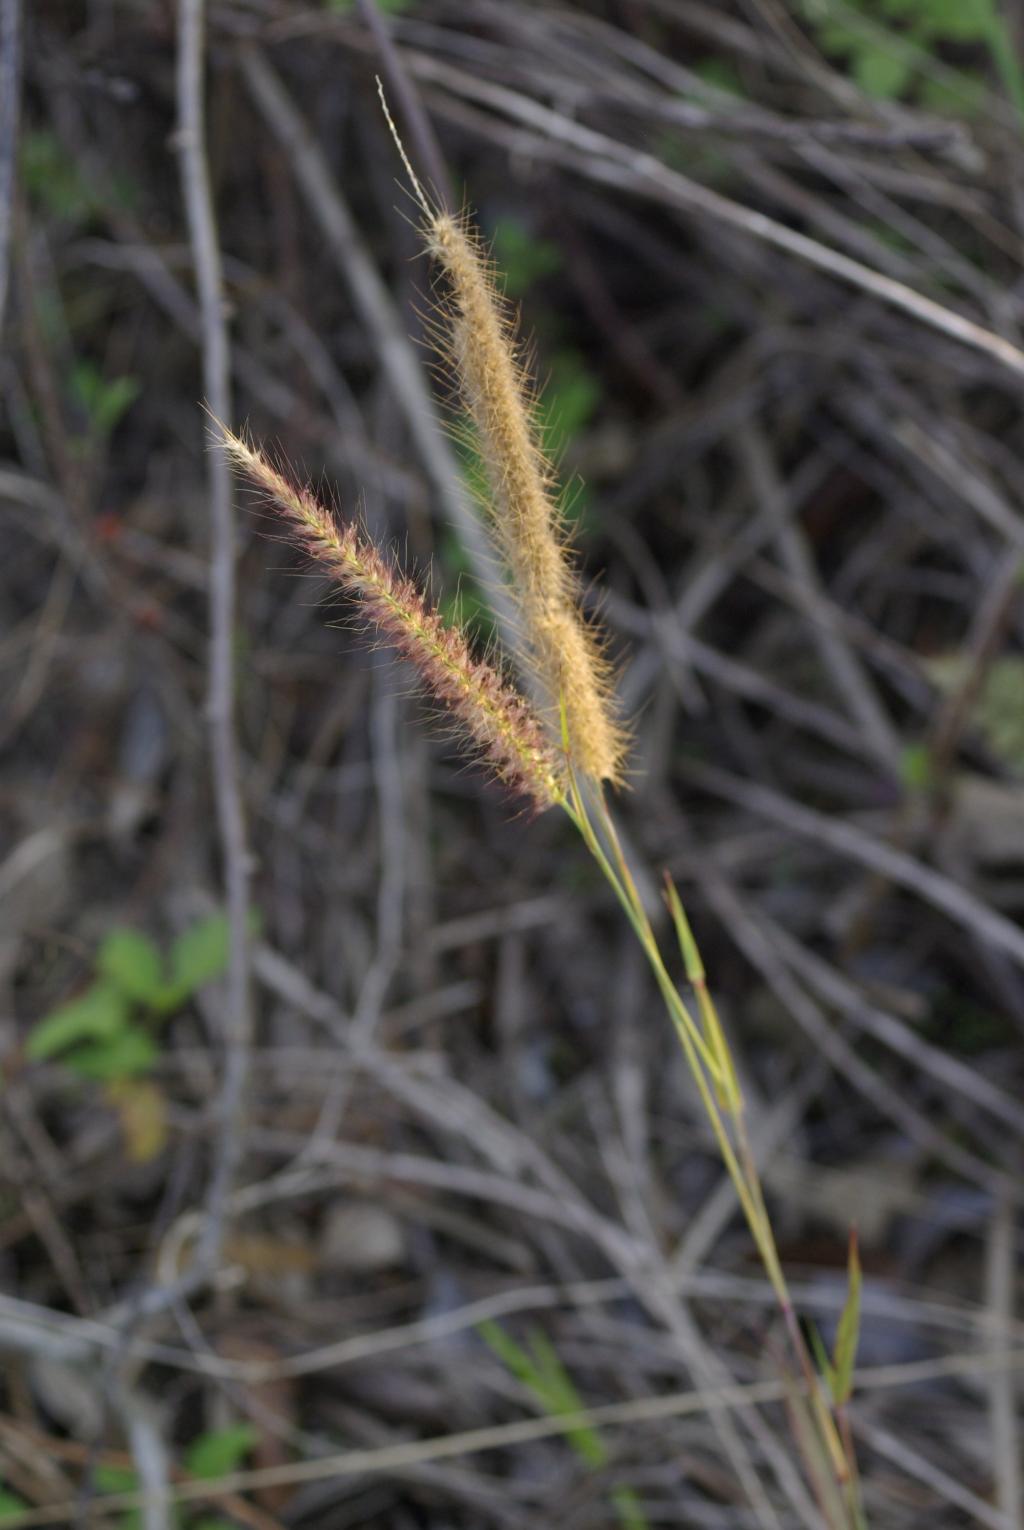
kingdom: Plantae
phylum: Tracheophyta
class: Liliopsida
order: Poales
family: Poaceae
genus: Cenchrus
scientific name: Cenchrus setaceus
